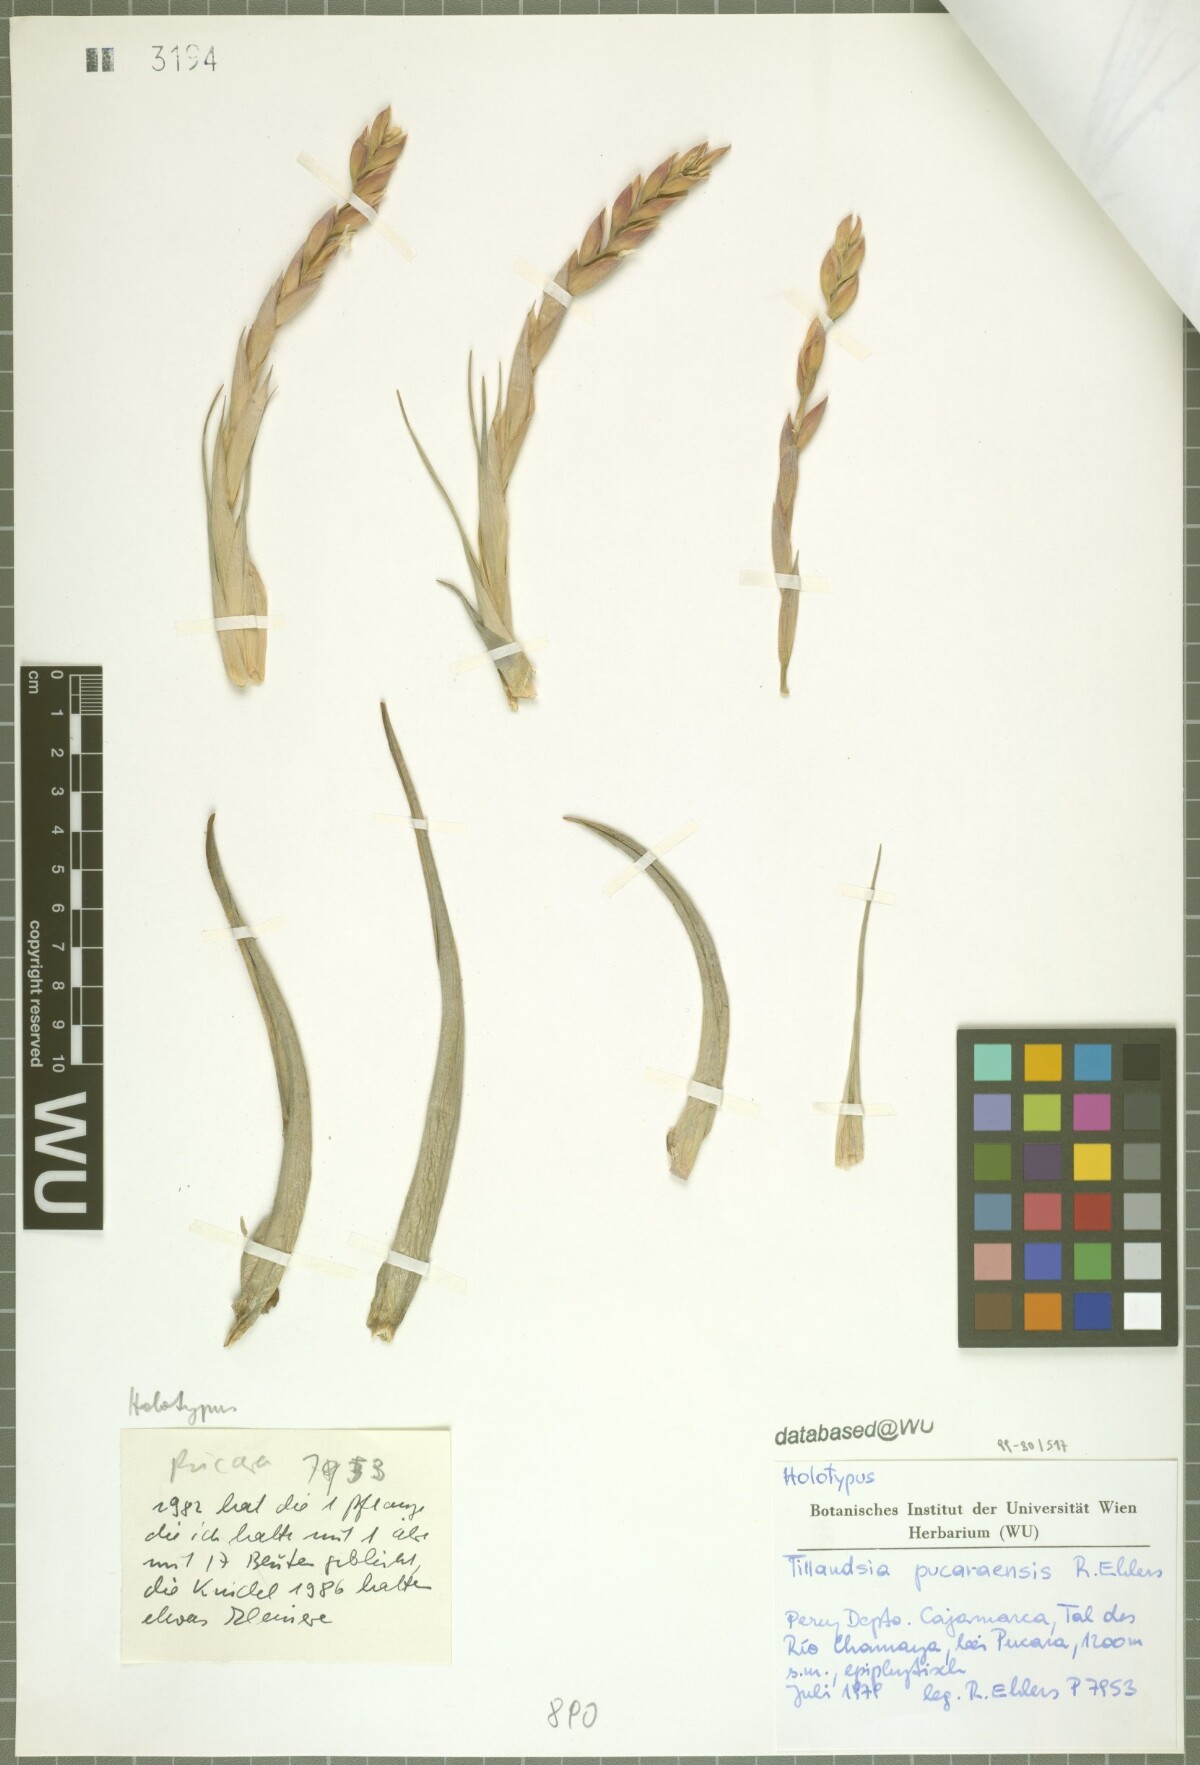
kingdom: Plantae
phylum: Tracheophyta
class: Liliopsida
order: Poales
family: Bromeliaceae
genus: Tillandsia
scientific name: Tillandsia pucaraensis
